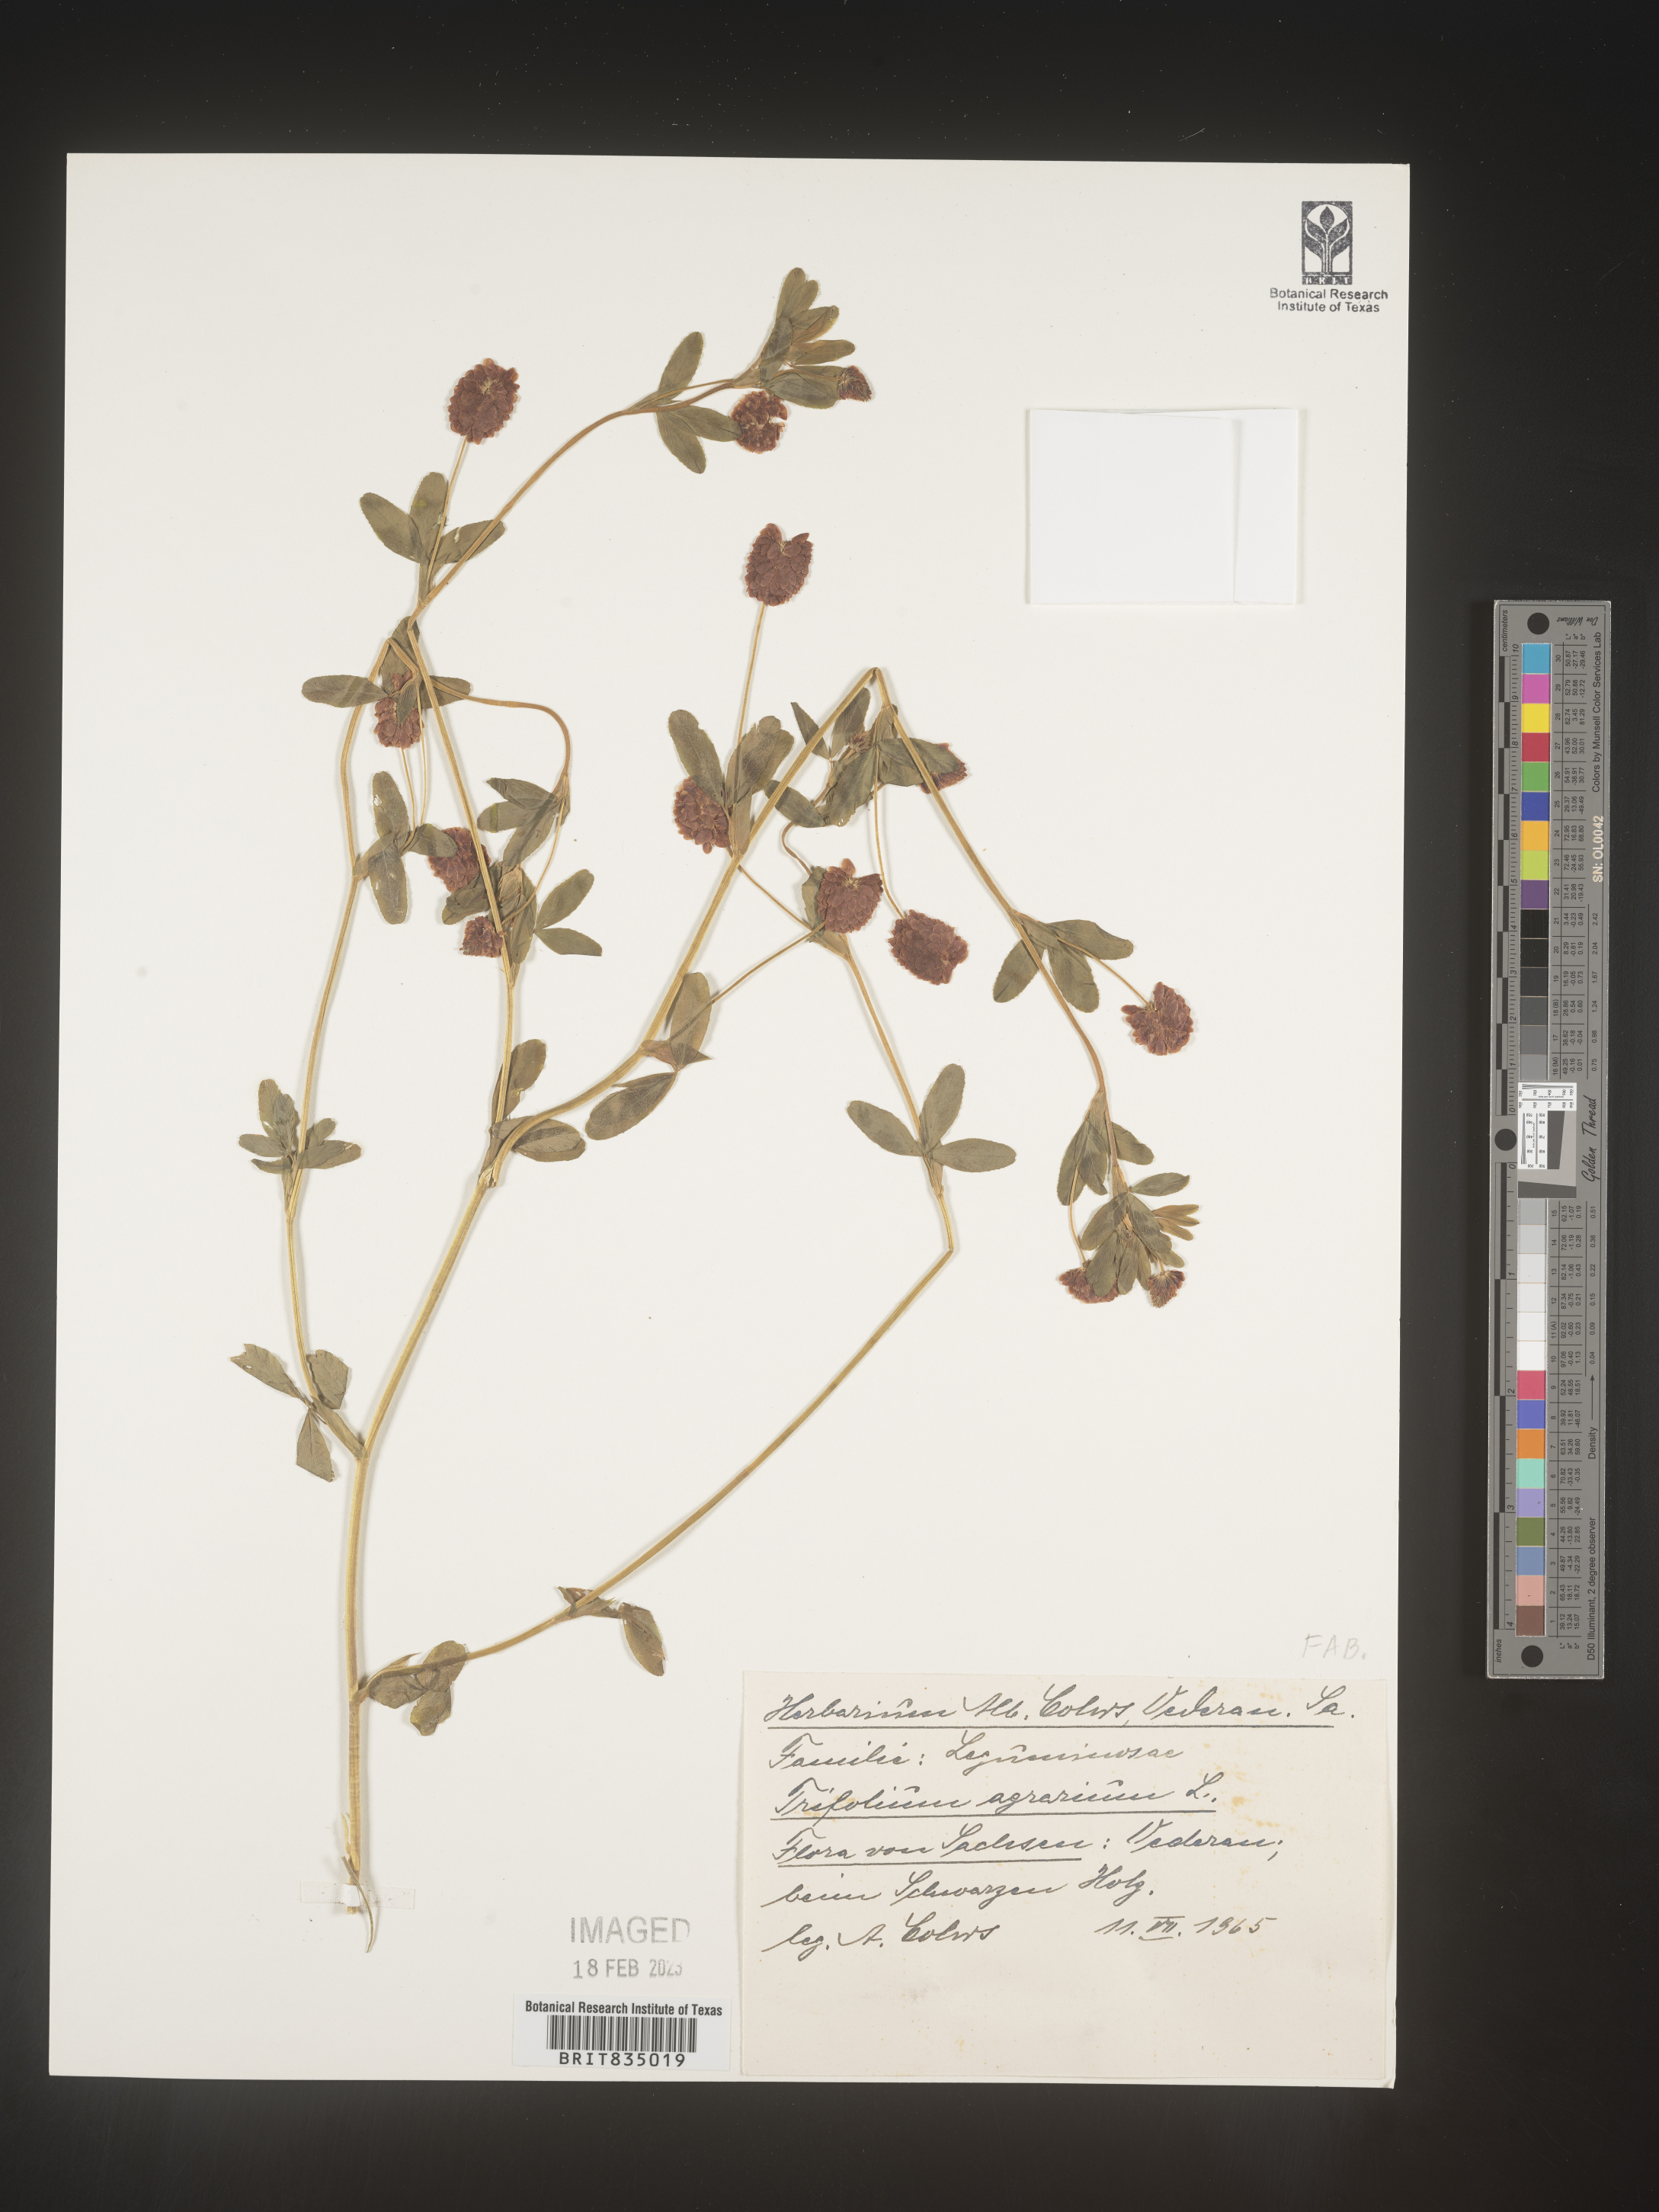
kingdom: Plantae
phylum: Tracheophyta
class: Magnoliopsida
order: Fabales
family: Fabaceae
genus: Trifolium
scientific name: Trifolium
